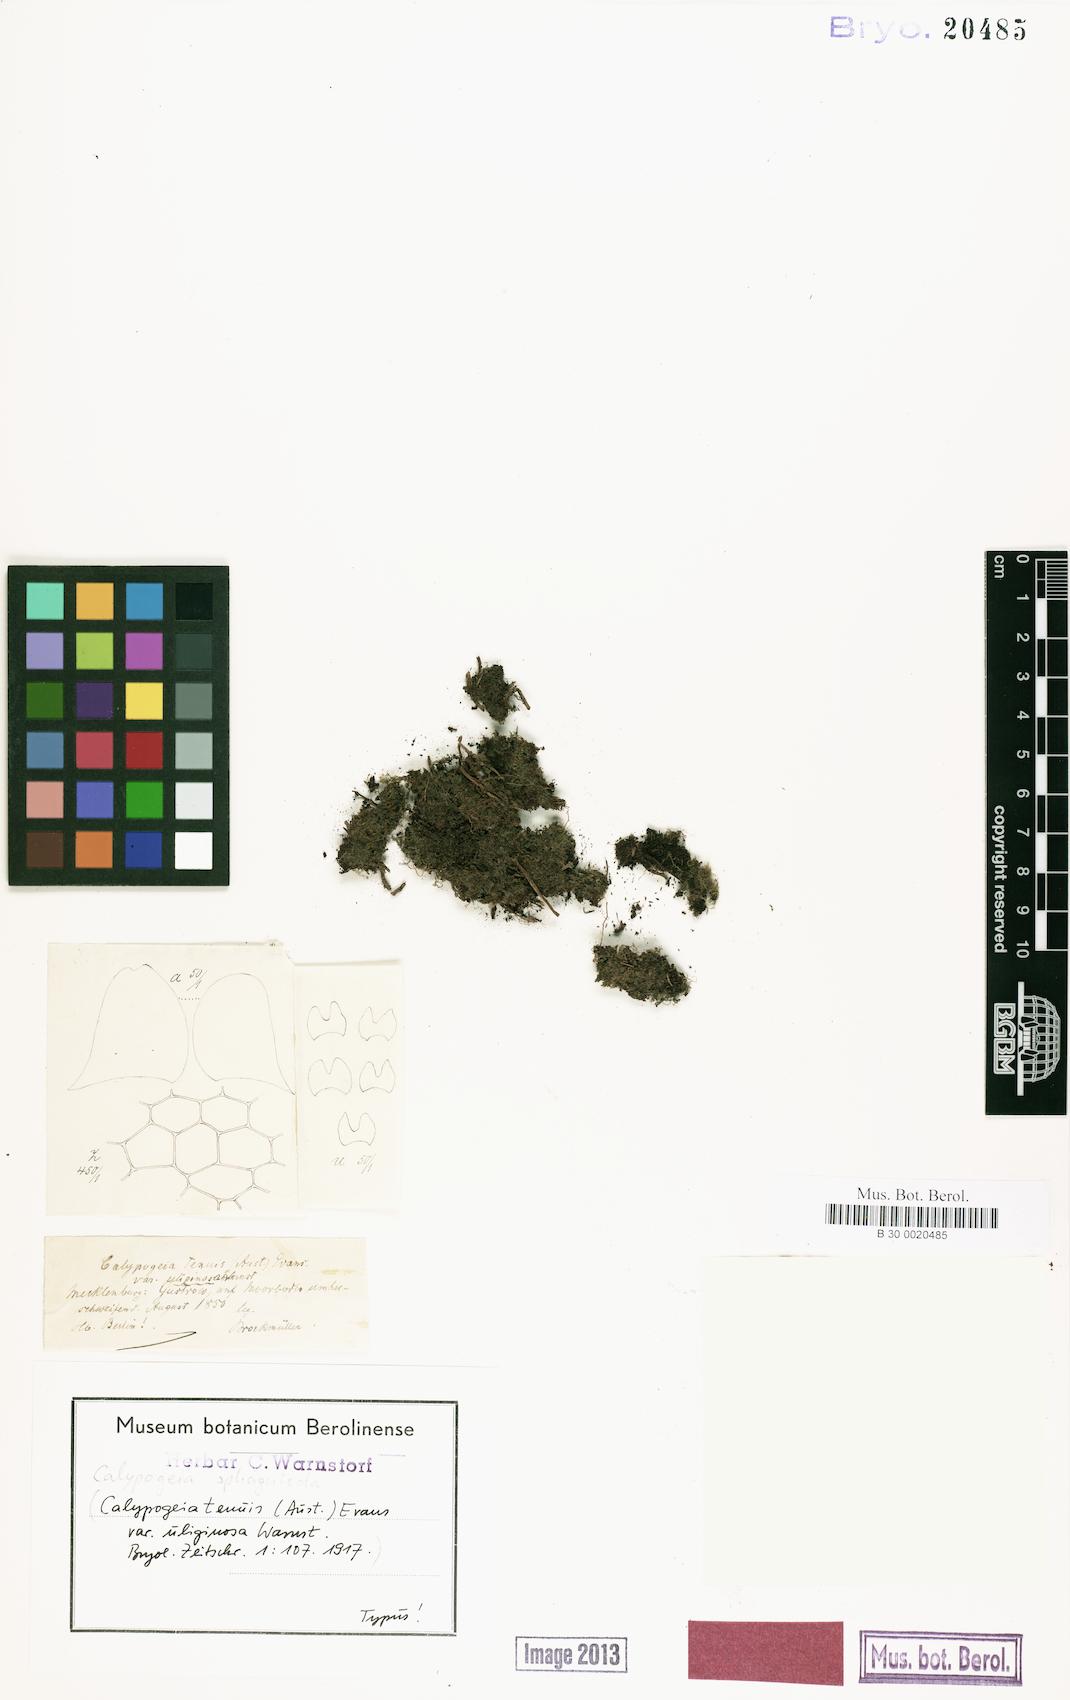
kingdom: Plantae
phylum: Marchantiophyta
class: Jungermanniopsida
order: Jungermanniales
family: Calypogeiaceae
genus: Calypogeia
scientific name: Calypogeia sphagnicola
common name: Bog pouchwort
